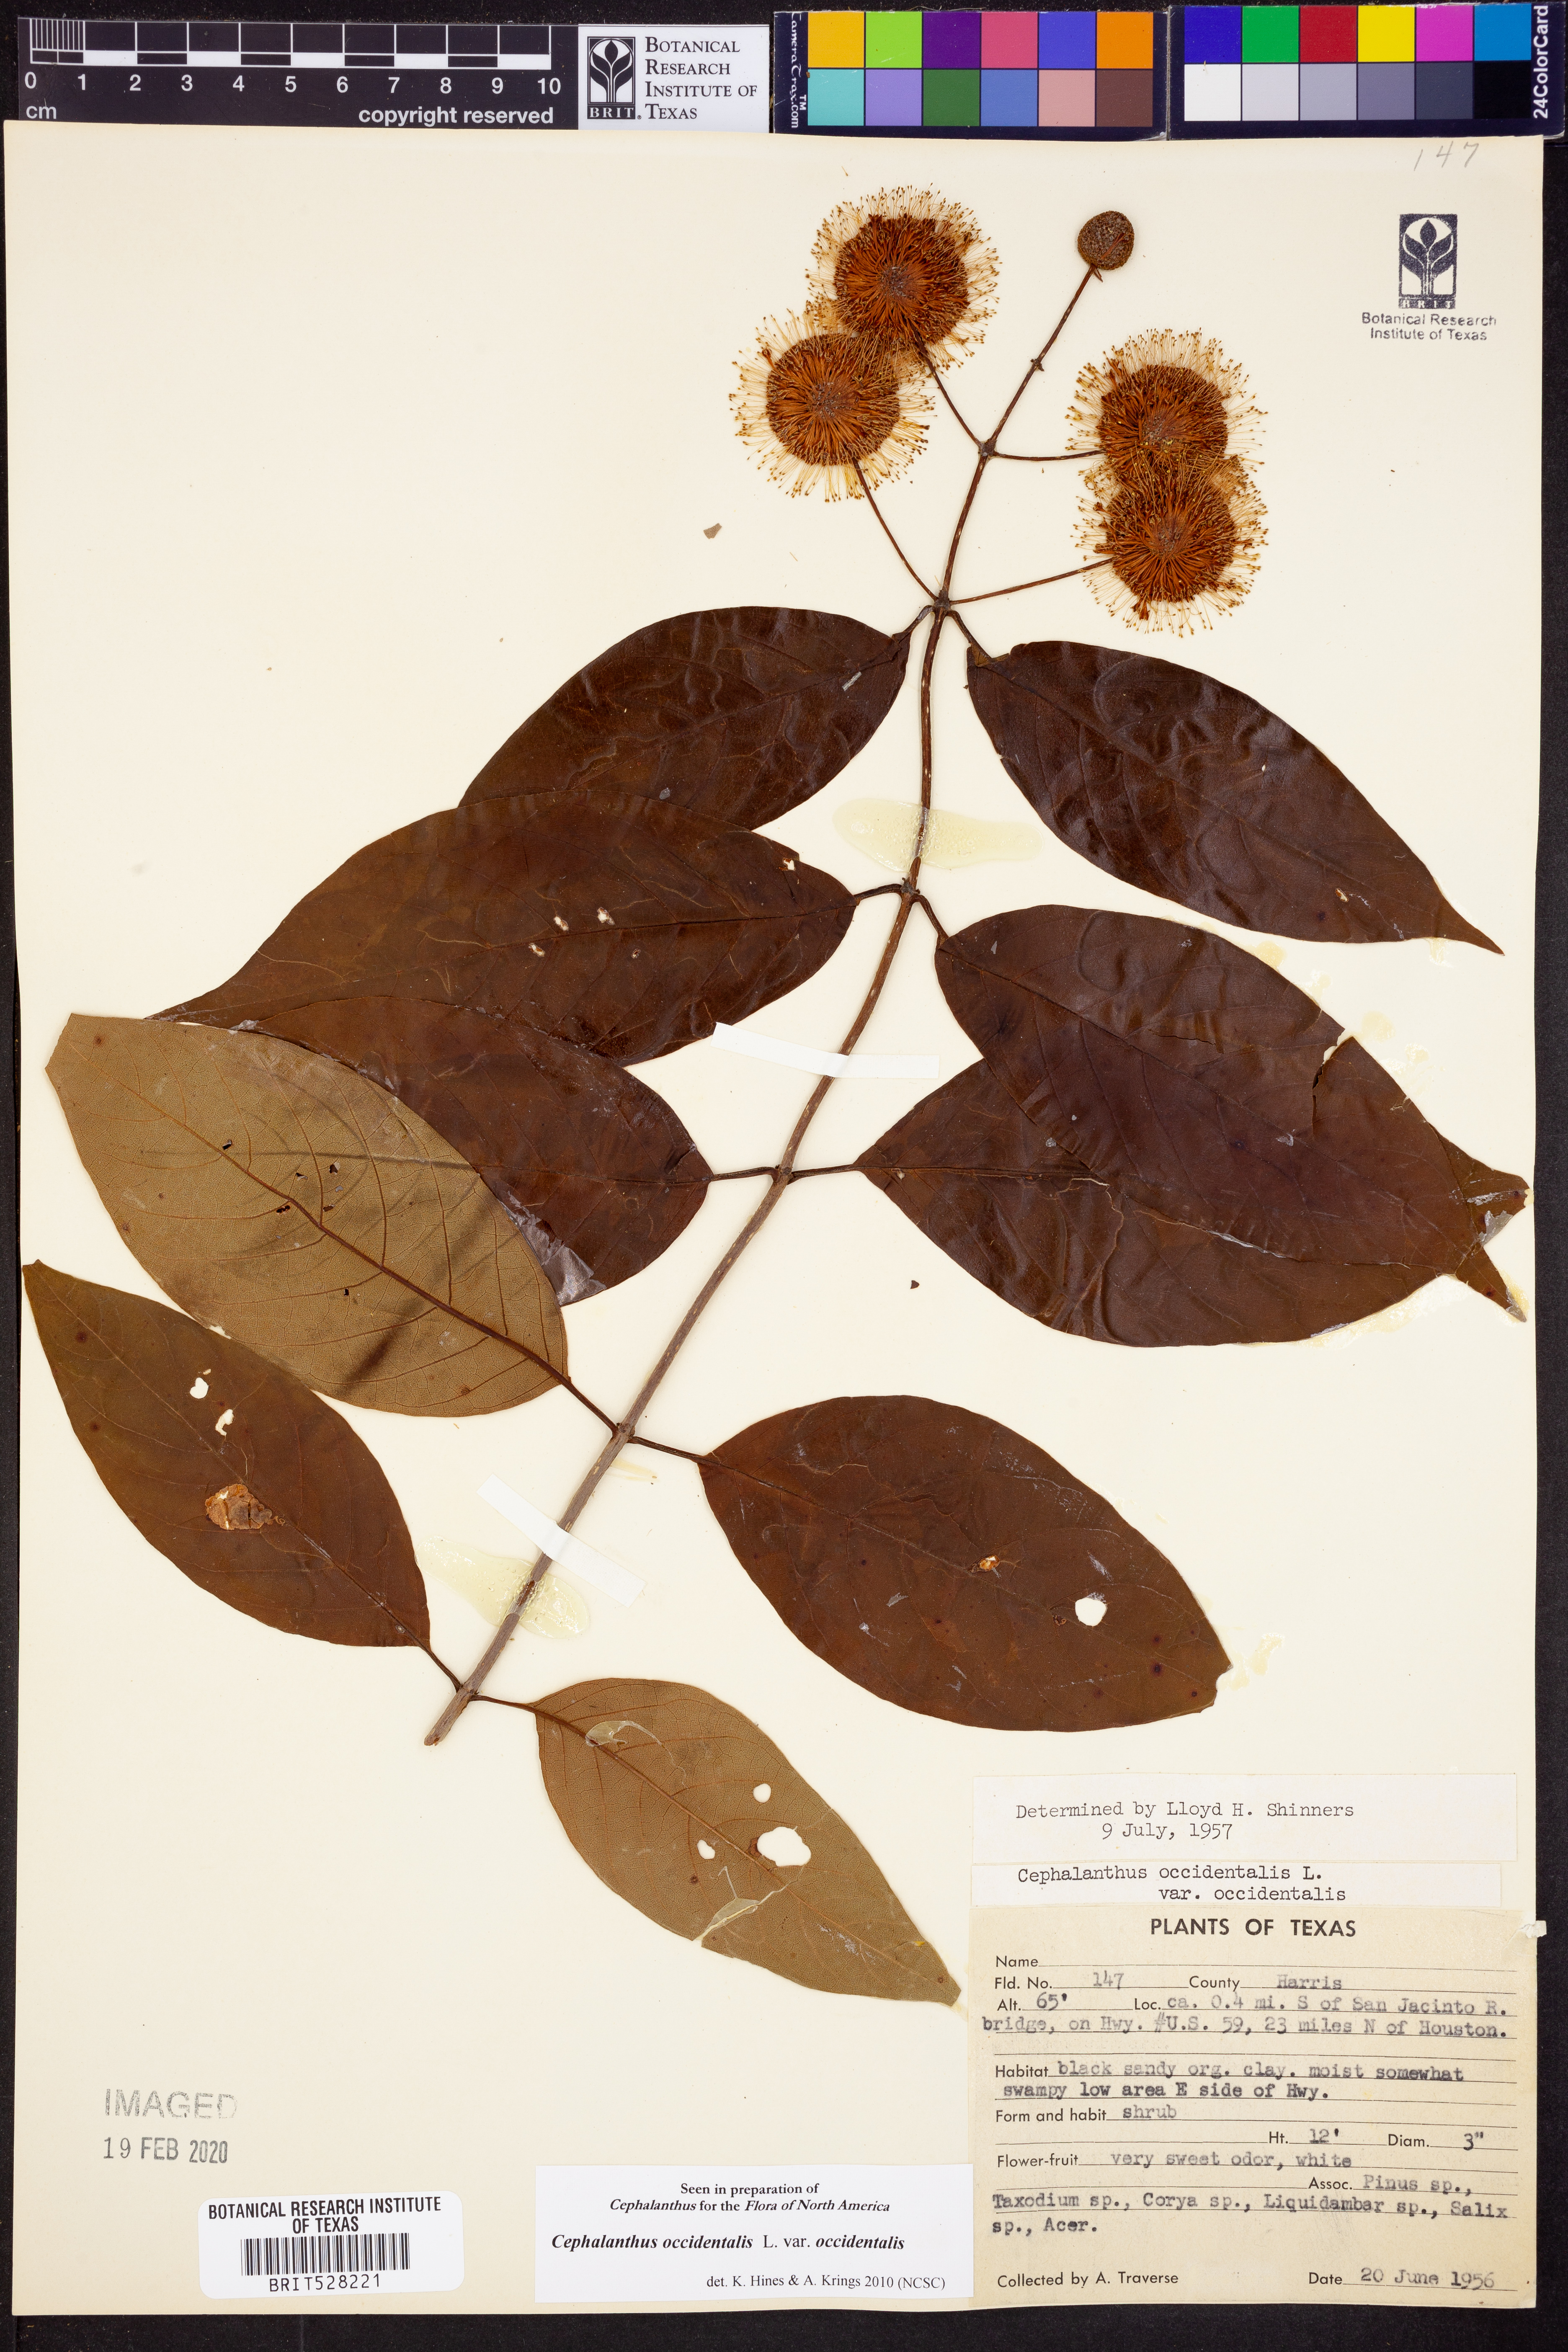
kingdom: Plantae
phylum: Tracheophyta
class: Magnoliopsida
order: Gentianales
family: Rubiaceae
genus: Cephalanthus
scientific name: Cephalanthus occidentalis
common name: Button-willow
